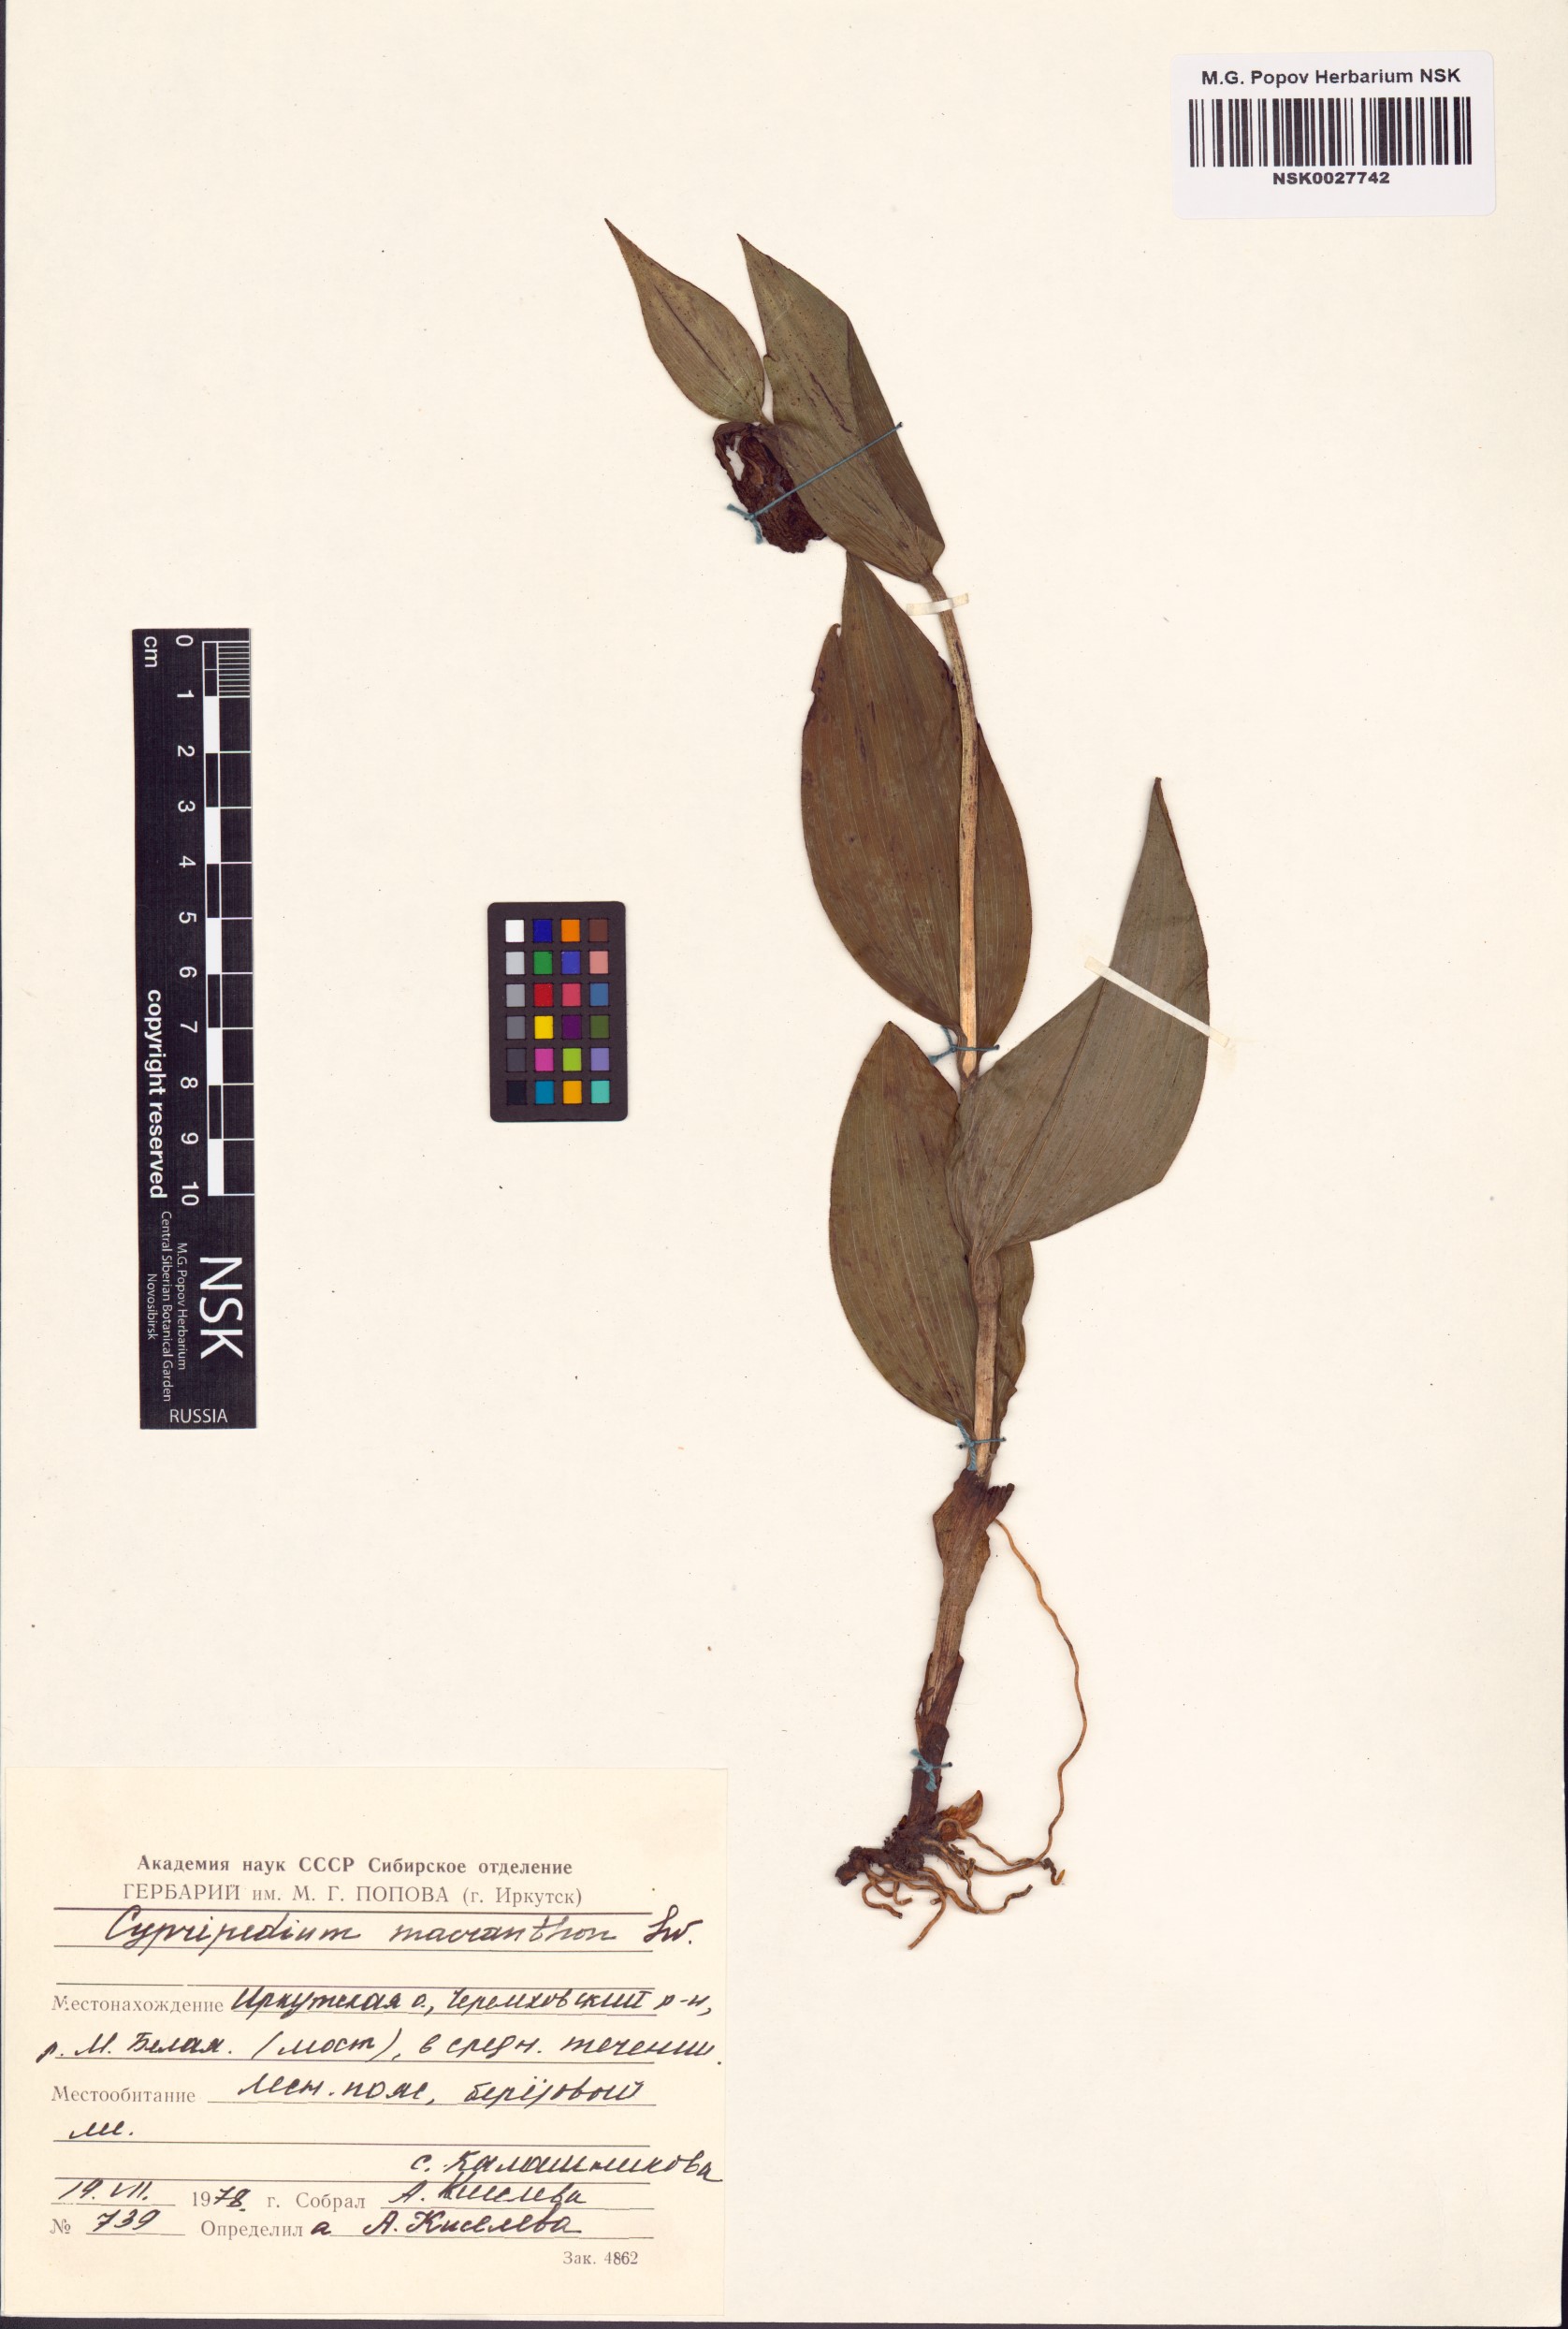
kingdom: Plantae
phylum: Tracheophyta
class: Liliopsida
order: Asparagales
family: Orchidaceae
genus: Cypripedium
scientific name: Cypripedium macranthos
